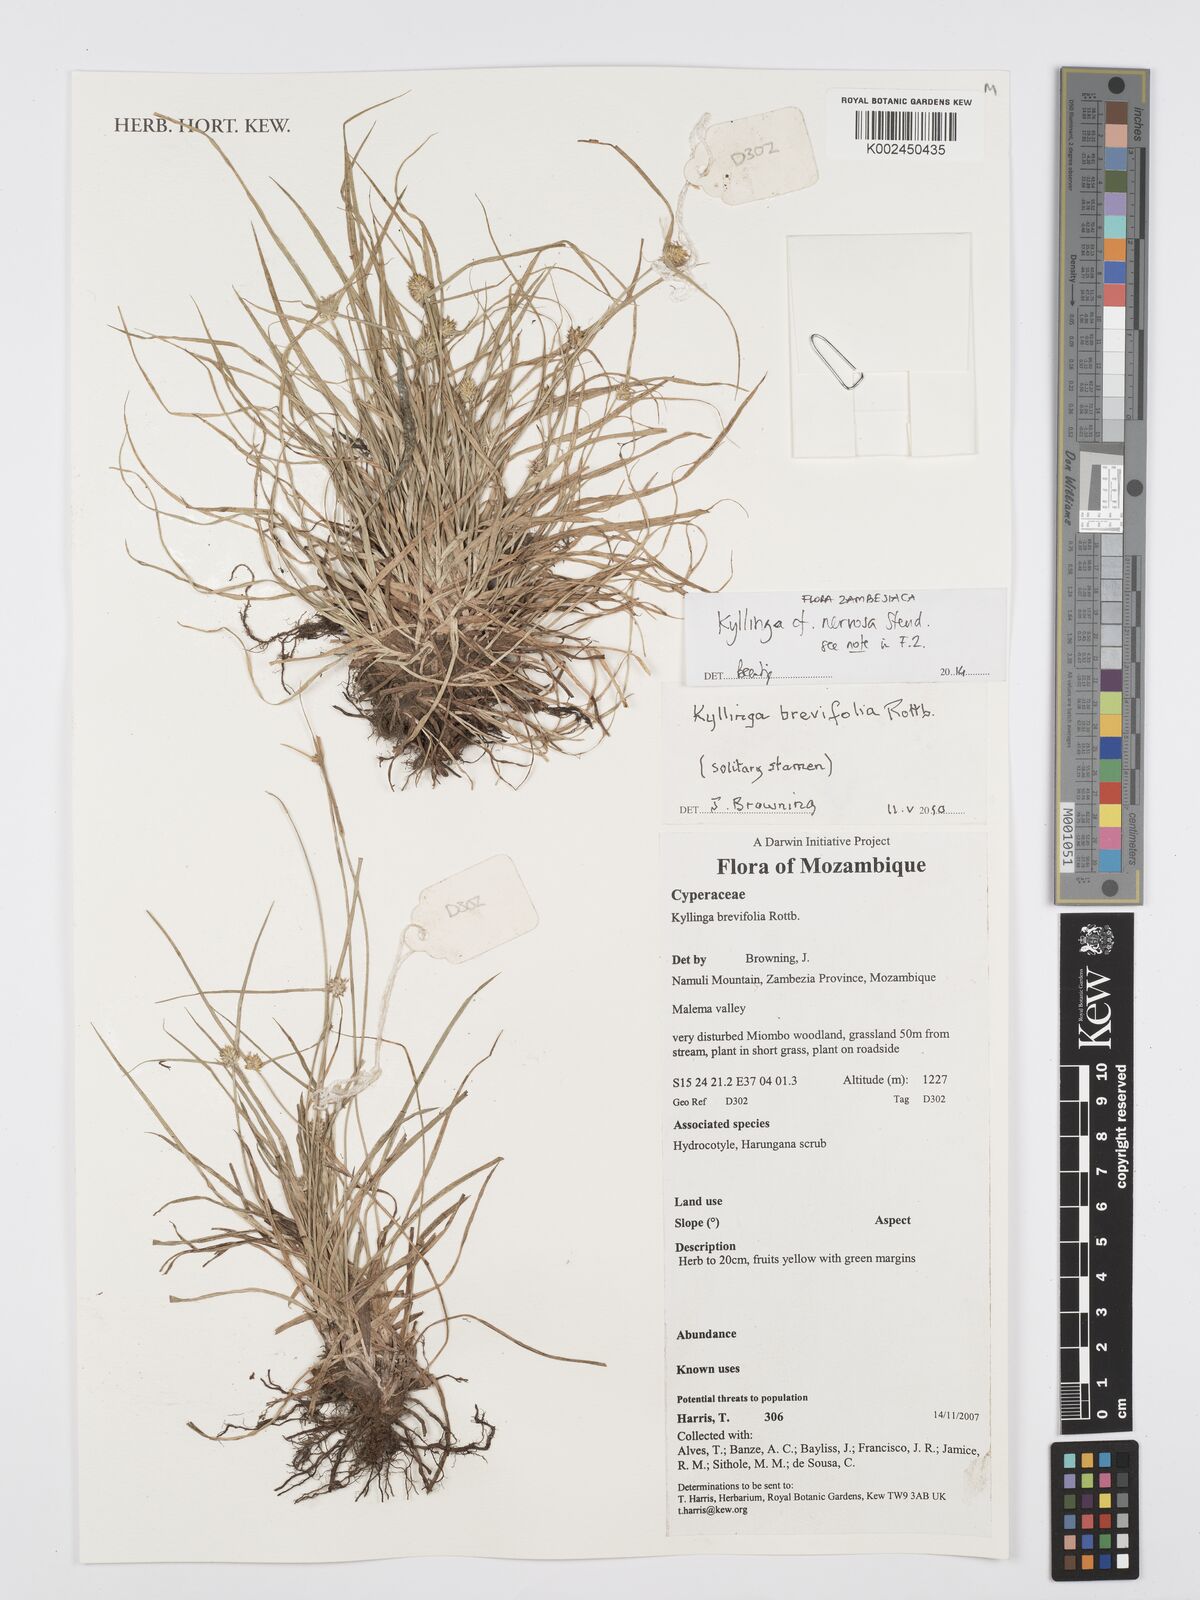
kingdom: Plantae
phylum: Tracheophyta
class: Liliopsida
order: Poales
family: Cyperaceae
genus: Cyperus
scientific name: Cyperus
